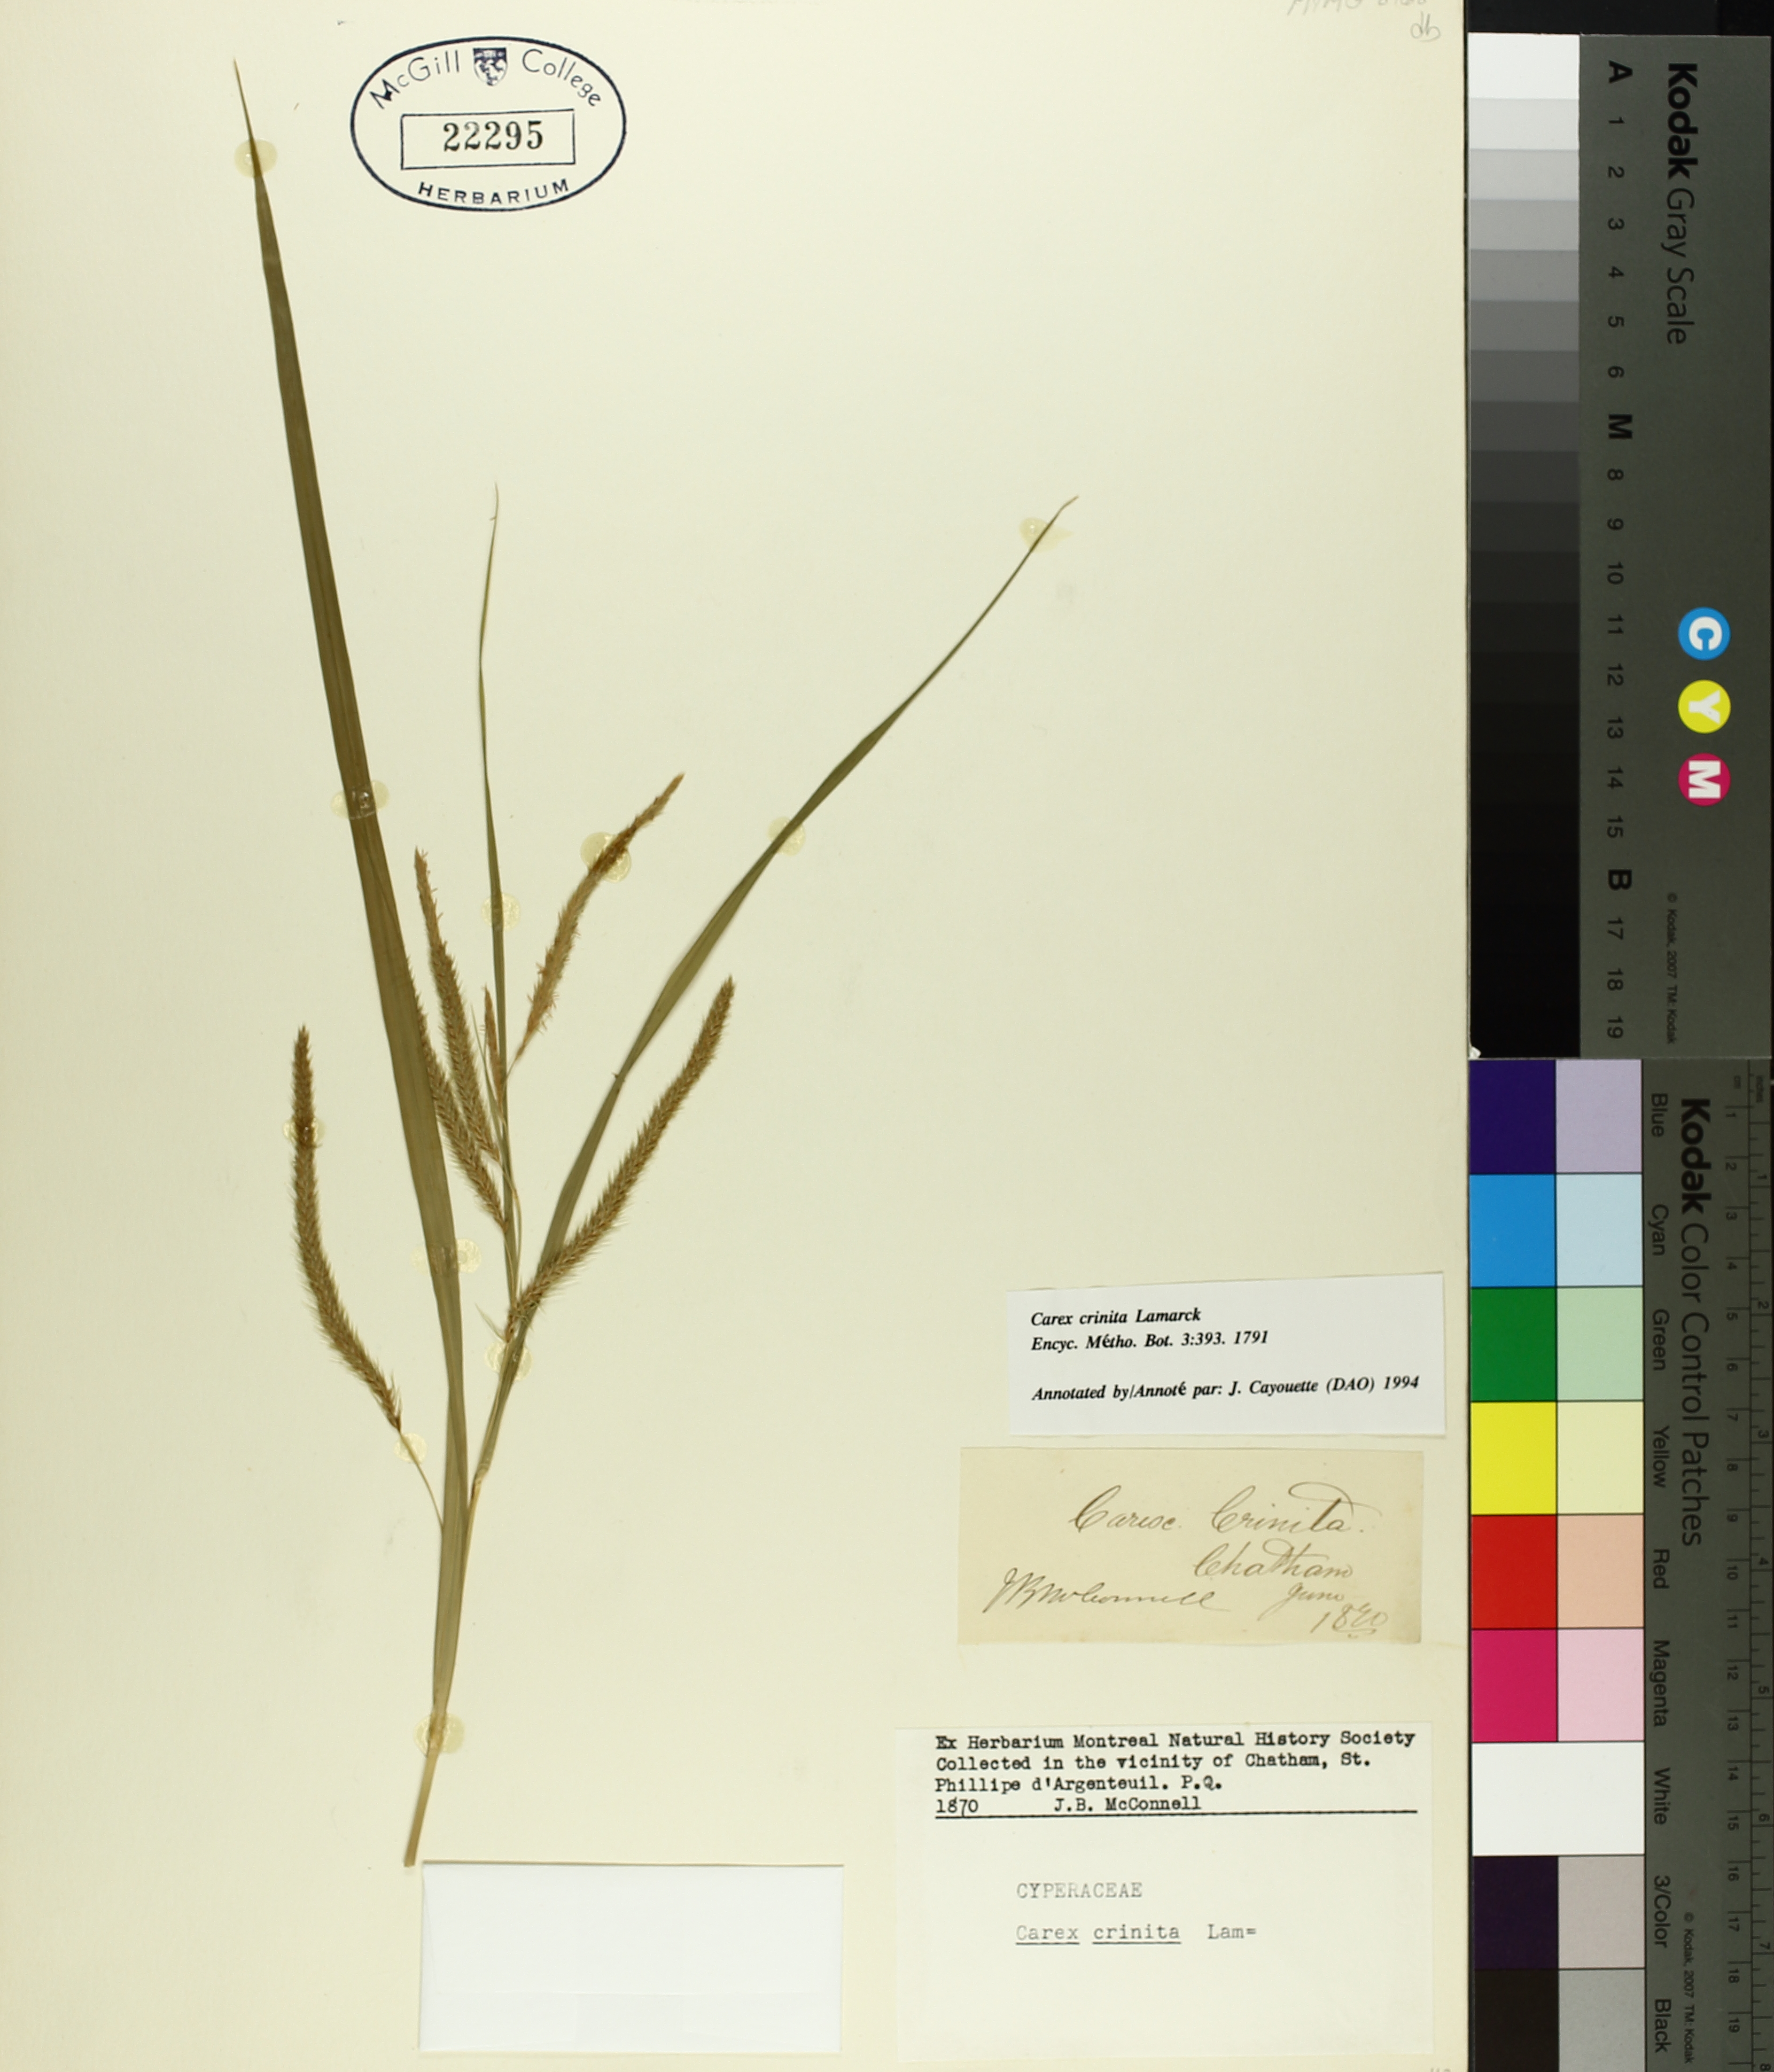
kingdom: Plantae
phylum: Tracheophyta
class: Liliopsida
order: Poales
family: Cyperaceae
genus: Carex
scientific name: Carex crinita
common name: Fringed sedge
